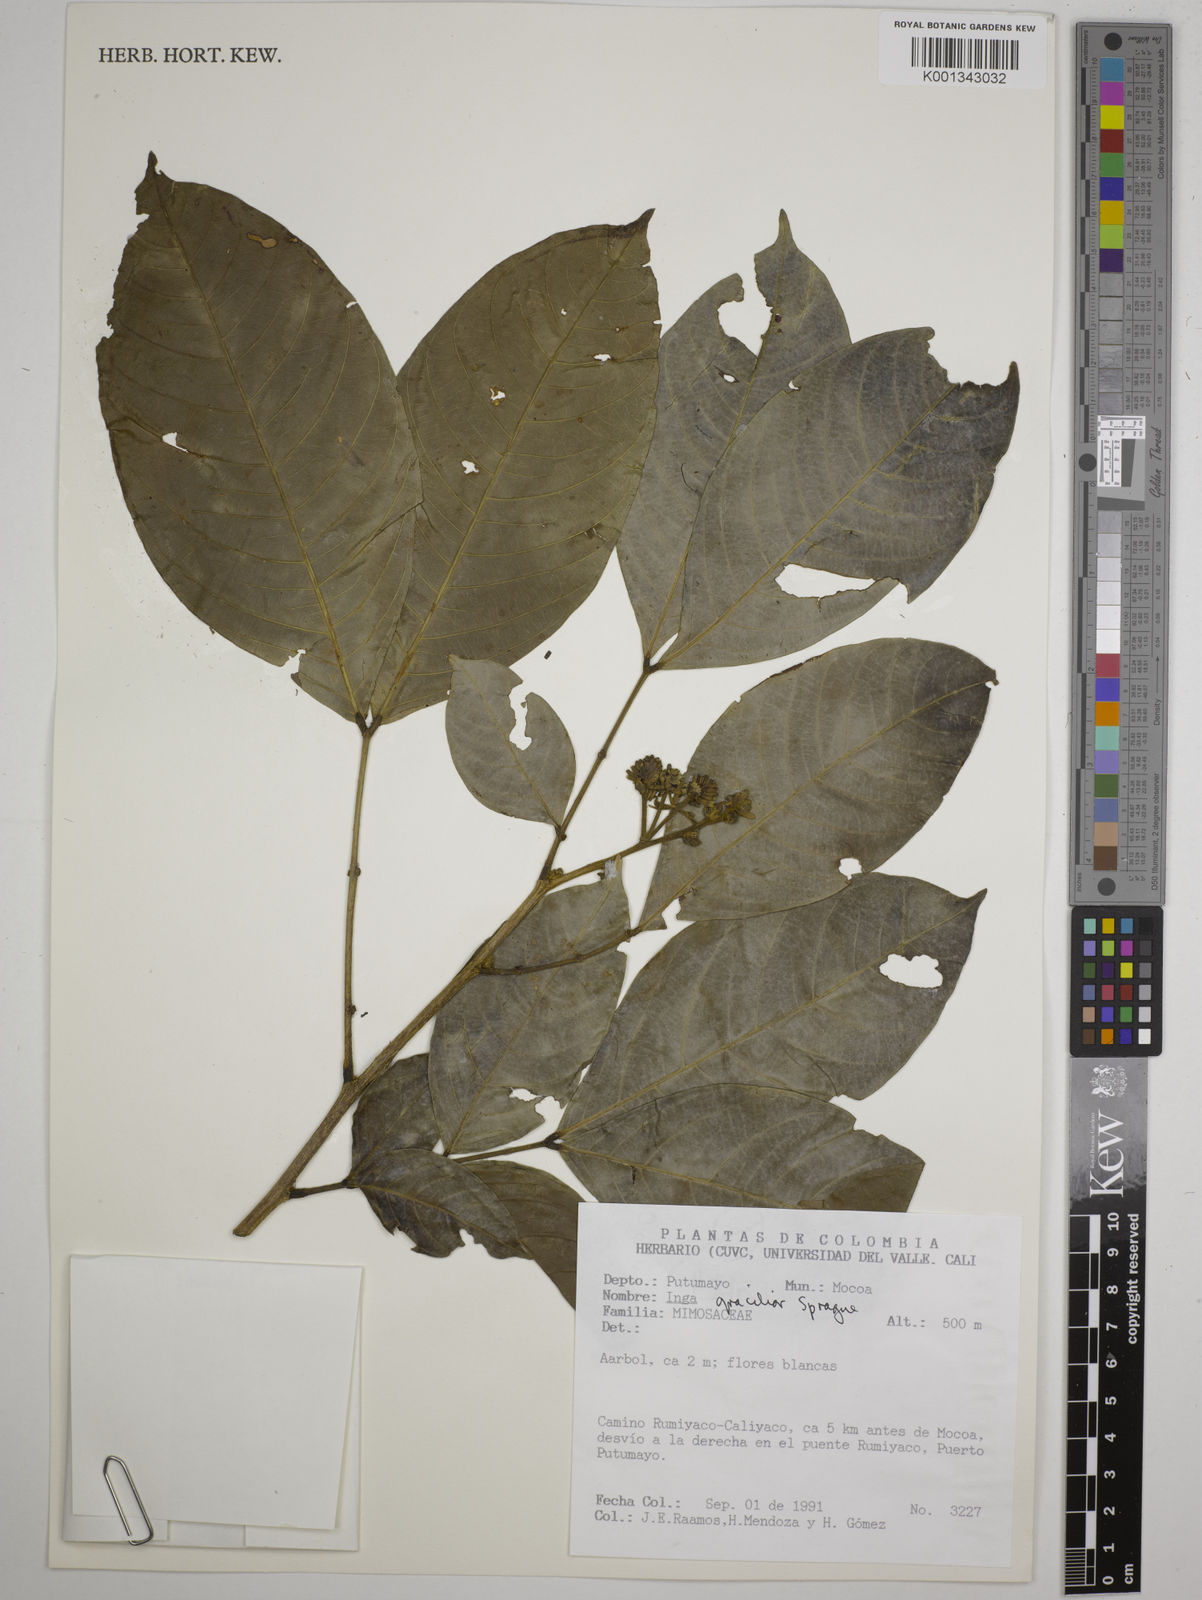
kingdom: Plantae
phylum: Tracheophyta
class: Magnoliopsida
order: Fabales
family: Fabaceae
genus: Inga
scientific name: Inga gracilior
